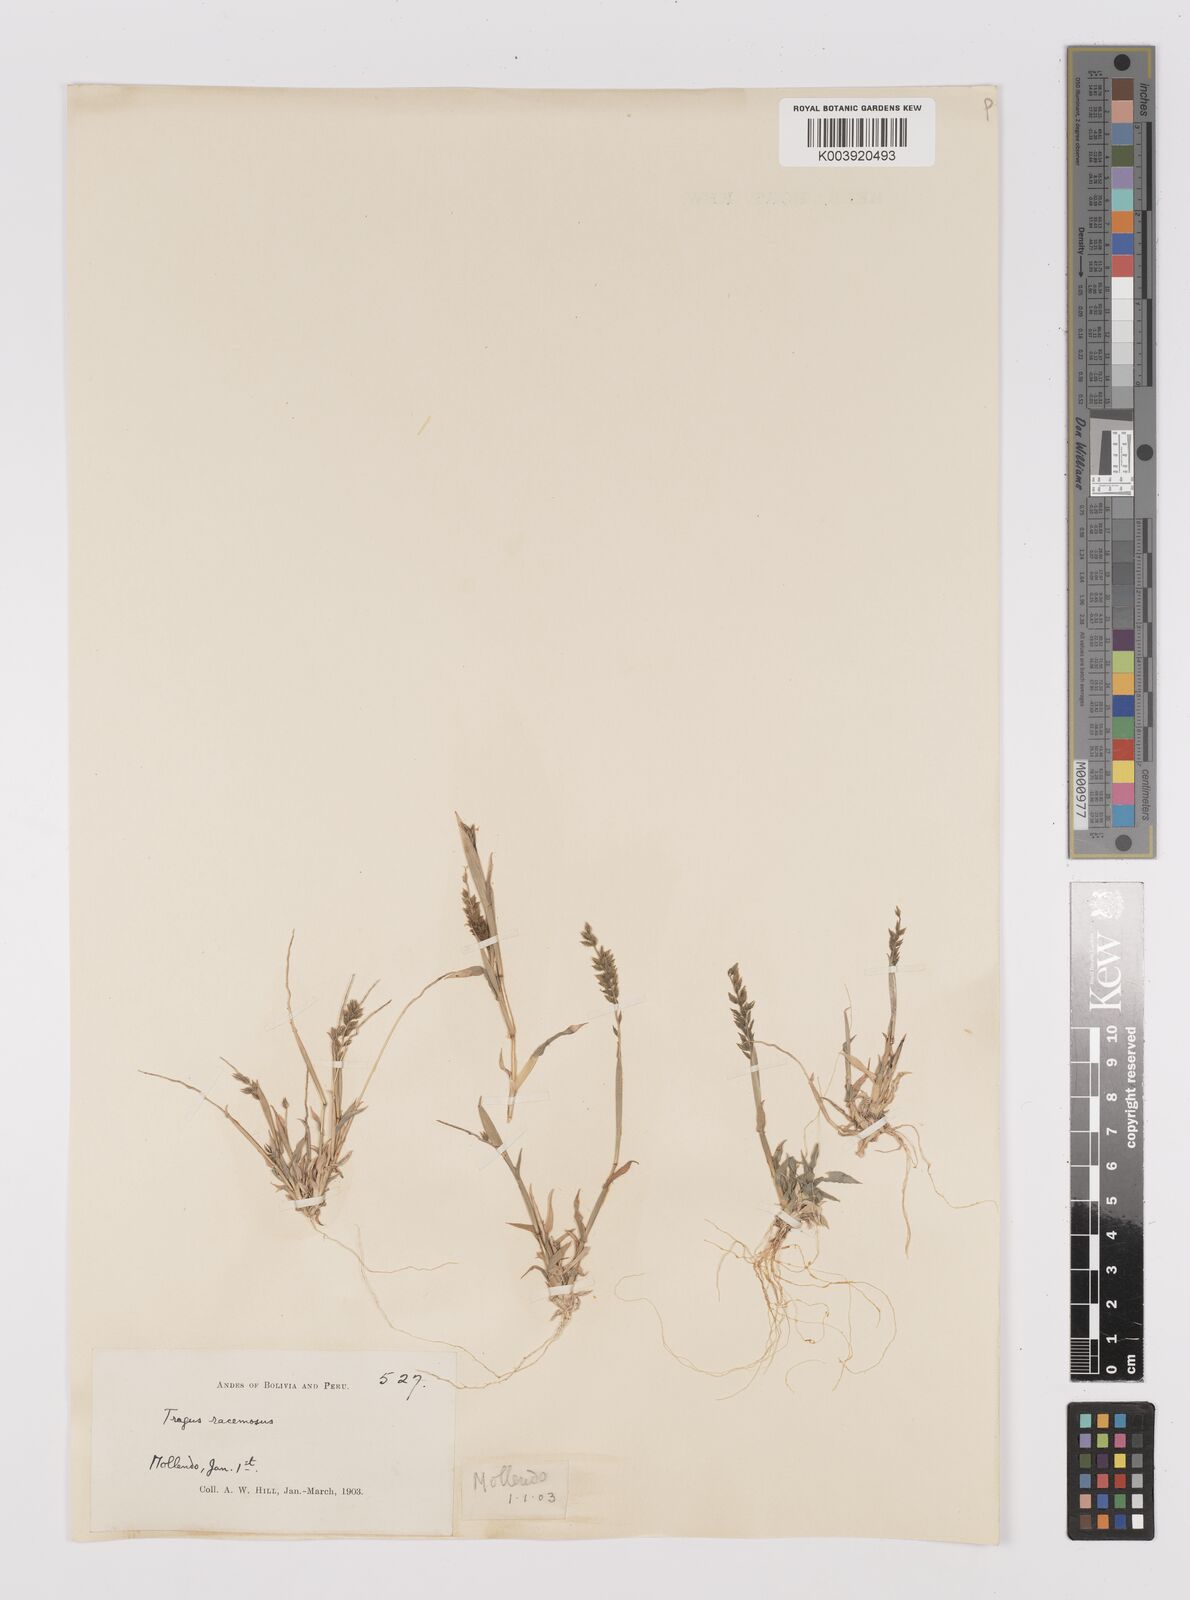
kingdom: Plantae
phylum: Tracheophyta
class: Liliopsida
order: Poales
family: Poaceae
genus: Tragus
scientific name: Tragus berteronianus
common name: African bur-grass
